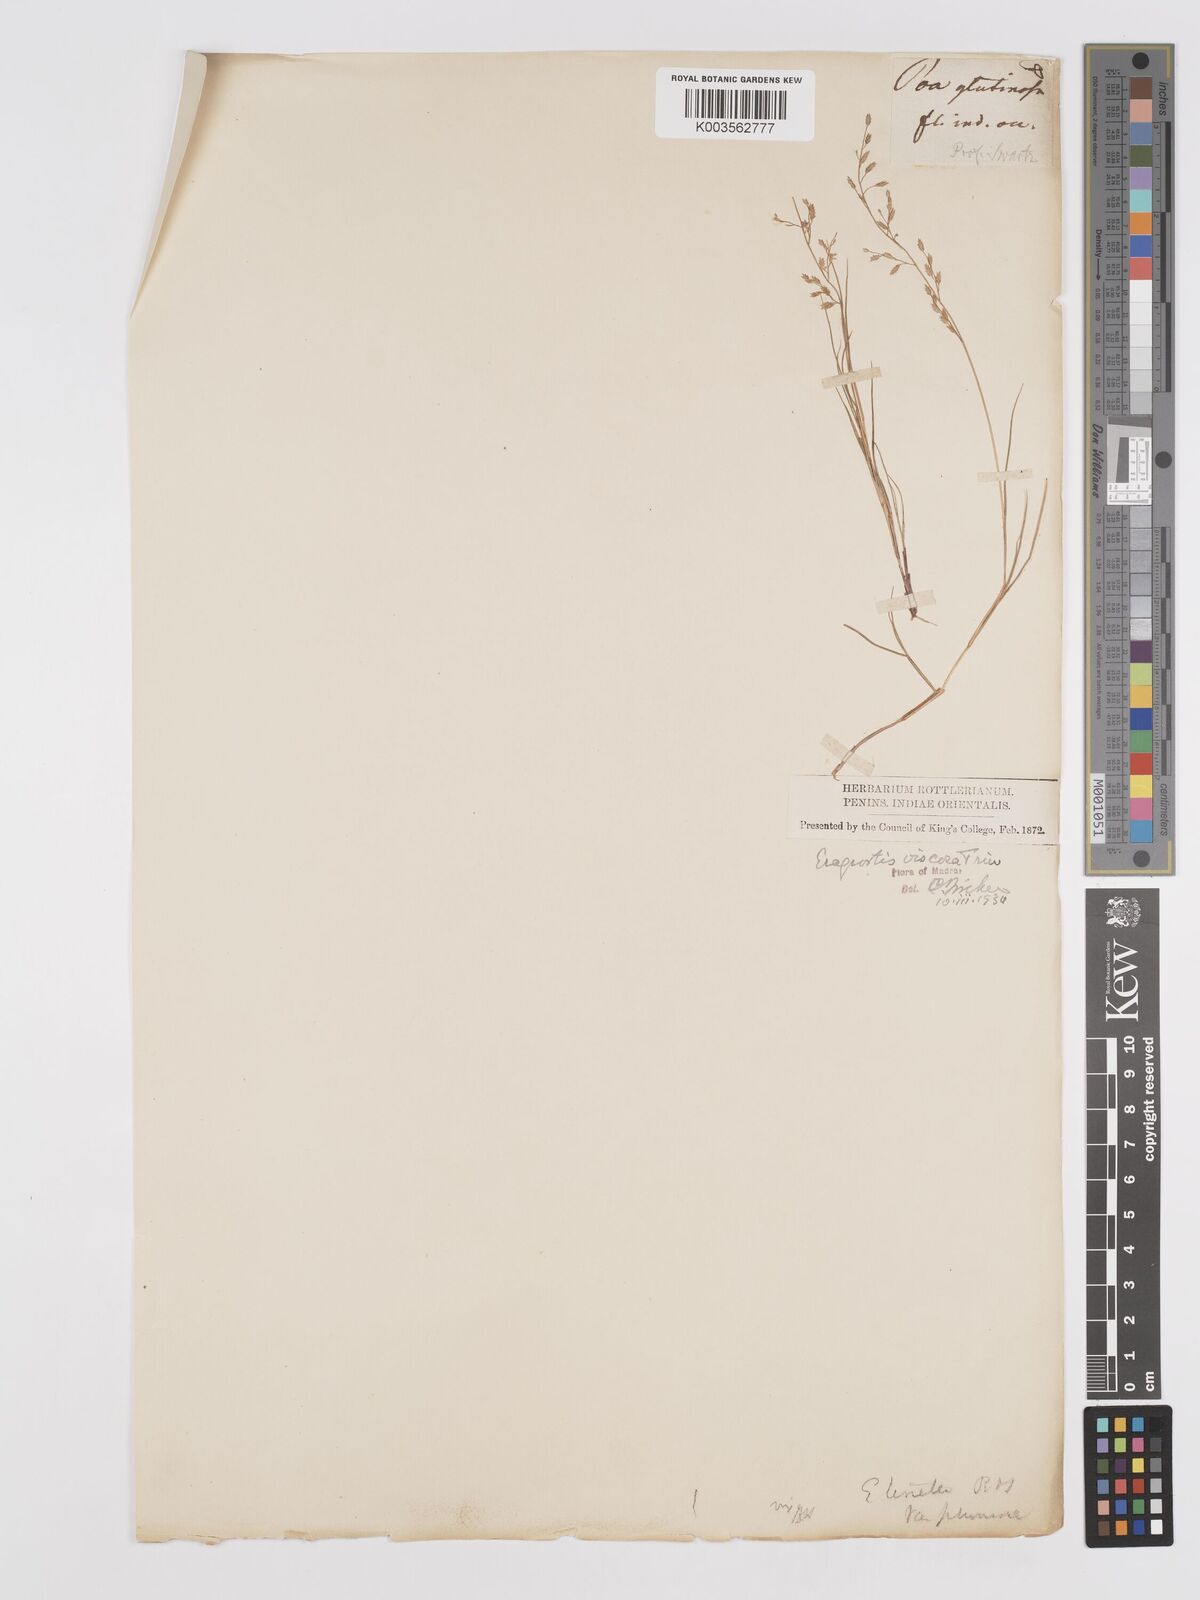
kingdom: Plantae
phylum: Tracheophyta
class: Liliopsida
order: Poales
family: Poaceae
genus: Eragrostis
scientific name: Eragrostis viscosa
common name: Sticky love grass
